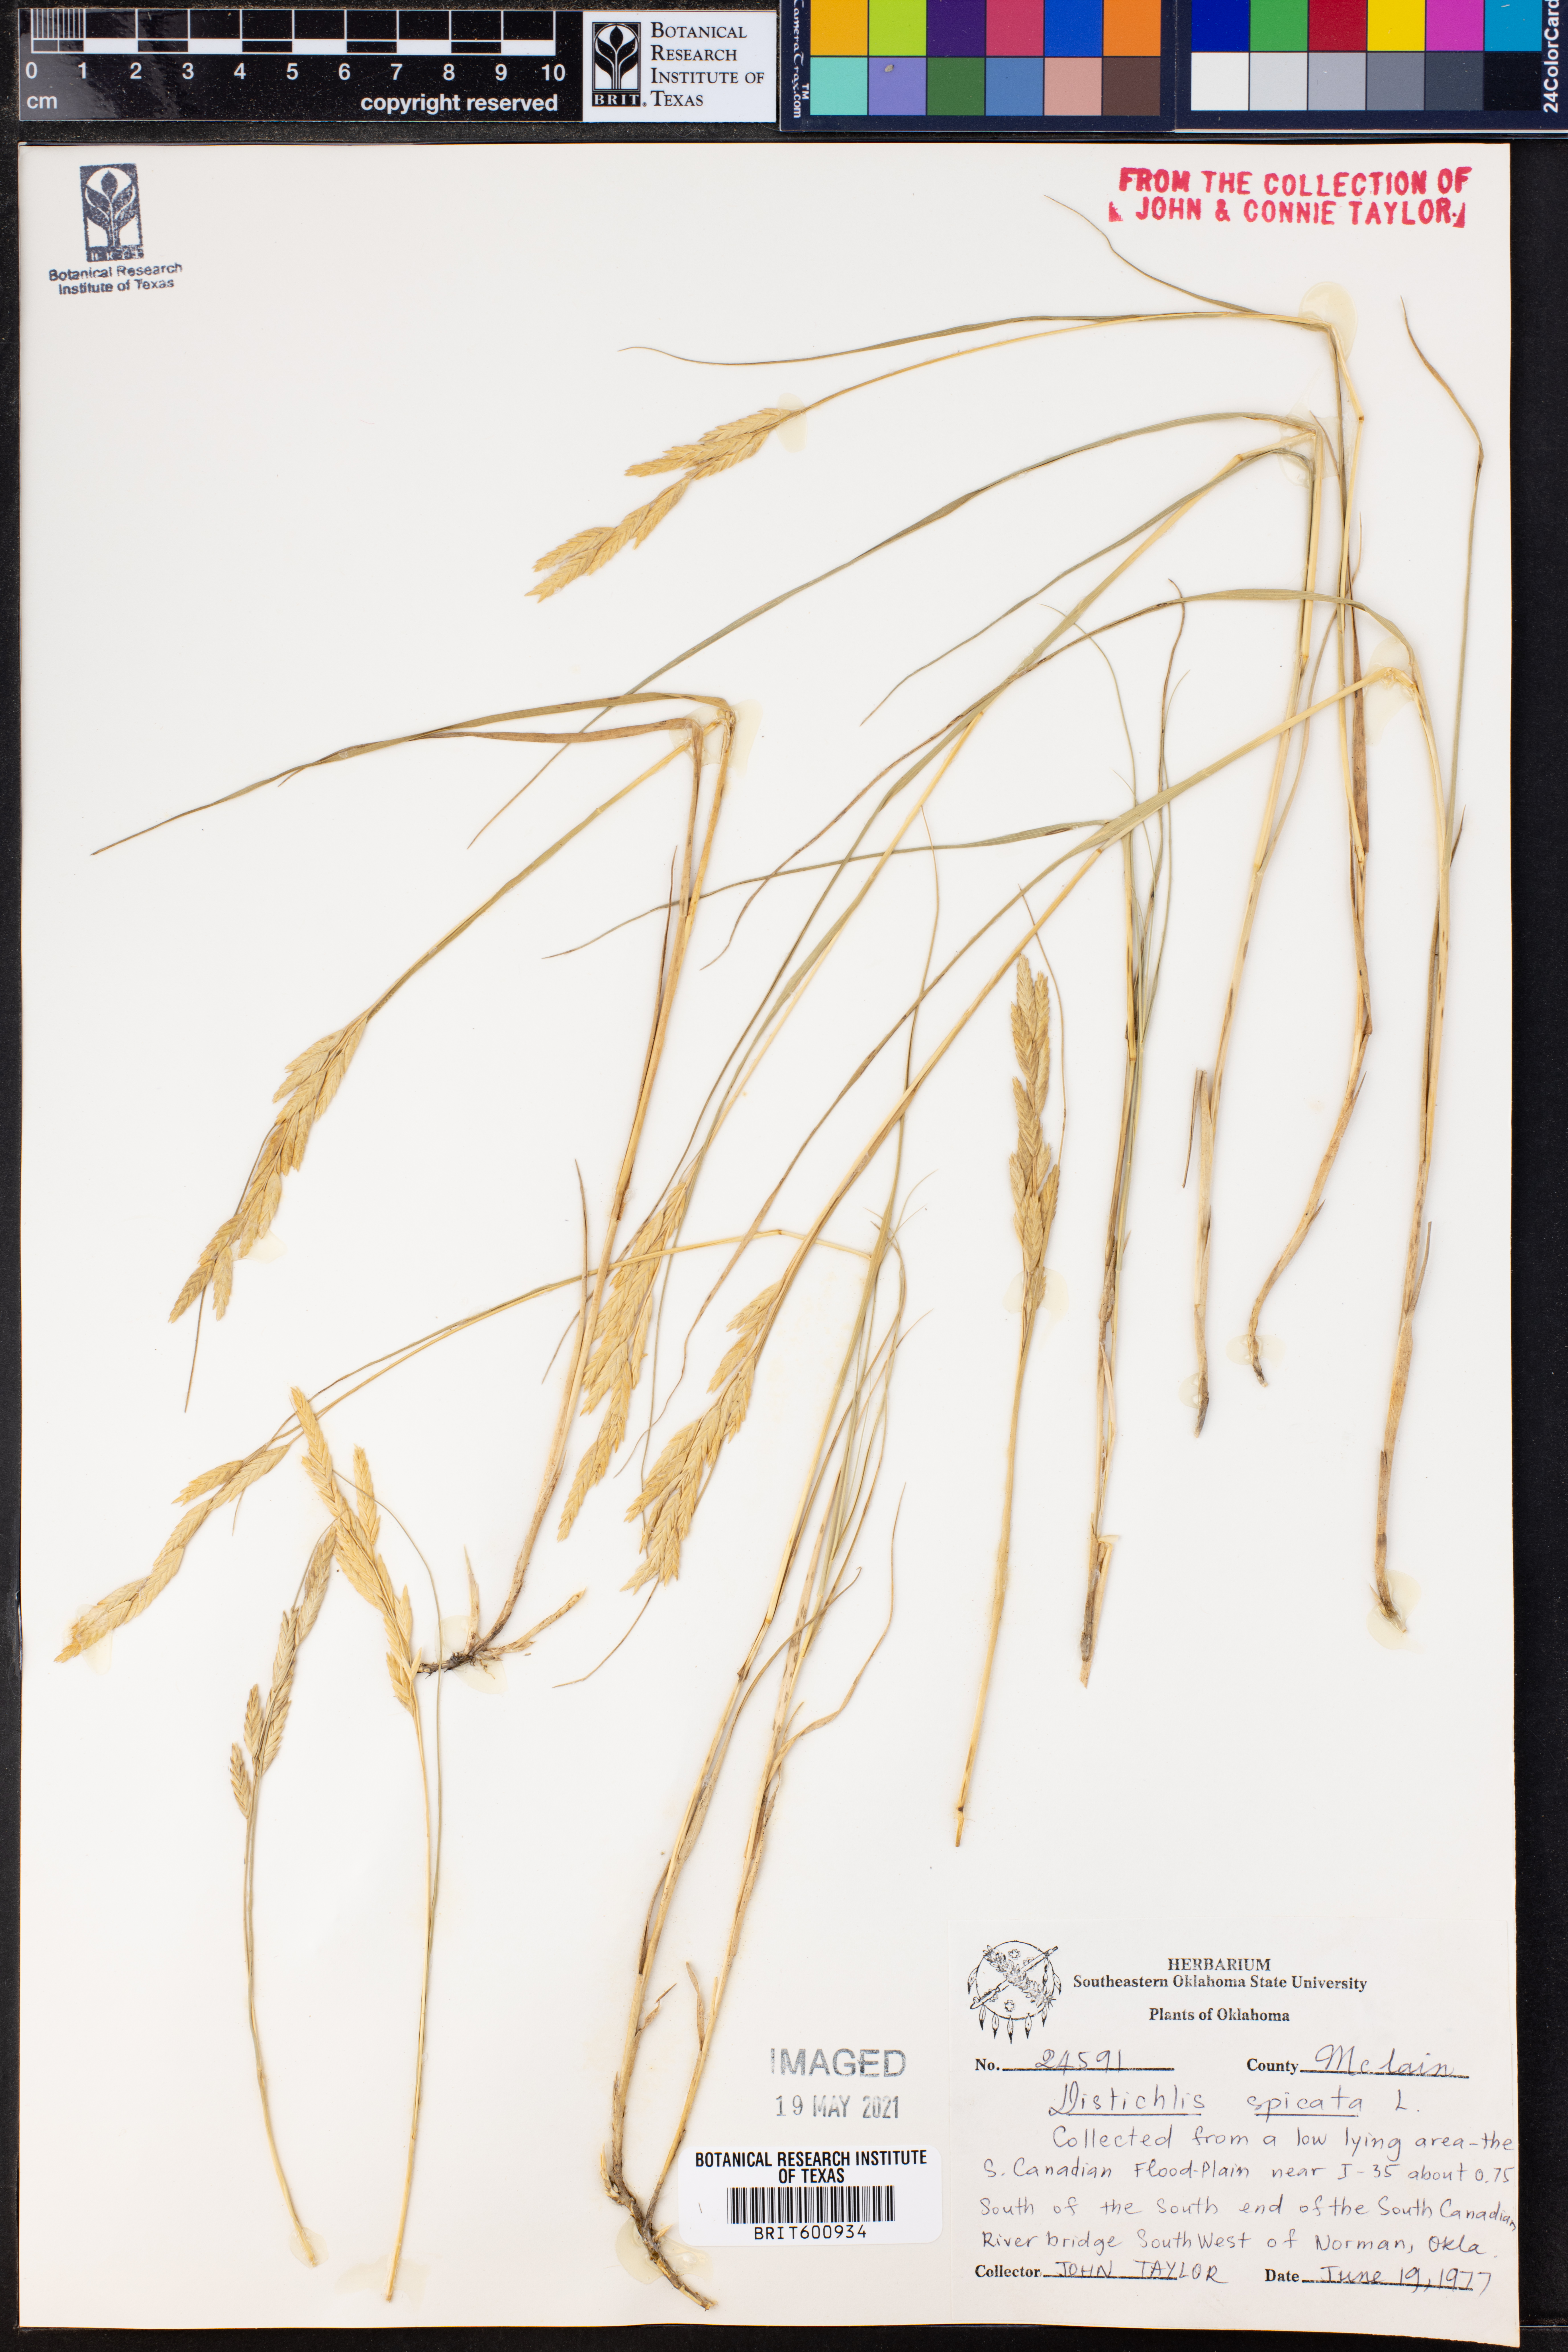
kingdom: Plantae
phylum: Tracheophyta
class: Liliopsida
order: Poales
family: Poaceae
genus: Distichlis
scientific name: Distichlis spicata
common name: Saltgrass
